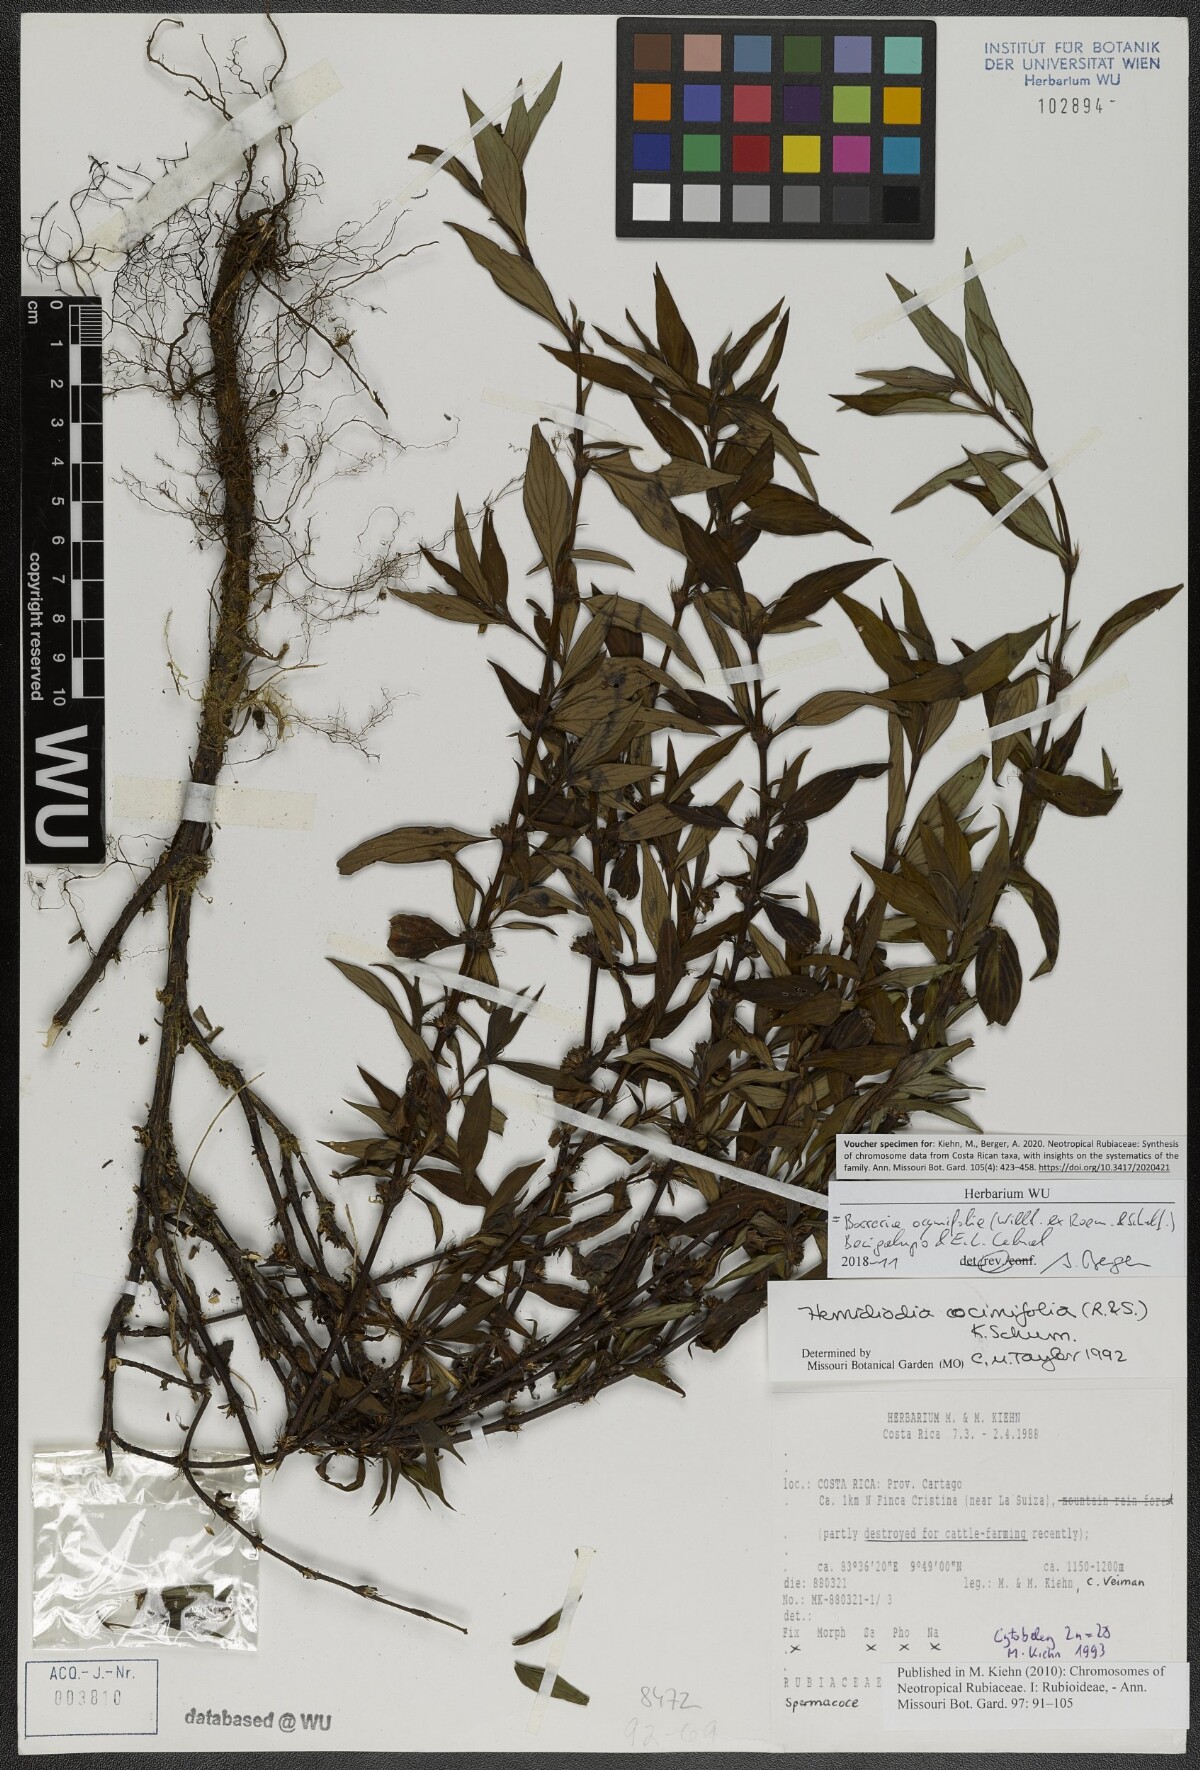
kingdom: Plantae
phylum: Tracheophyta
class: Magnoliopsida
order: Gentianales
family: Rubiaceae
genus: Spermacoce
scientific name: Spermacoce ocymifolia
